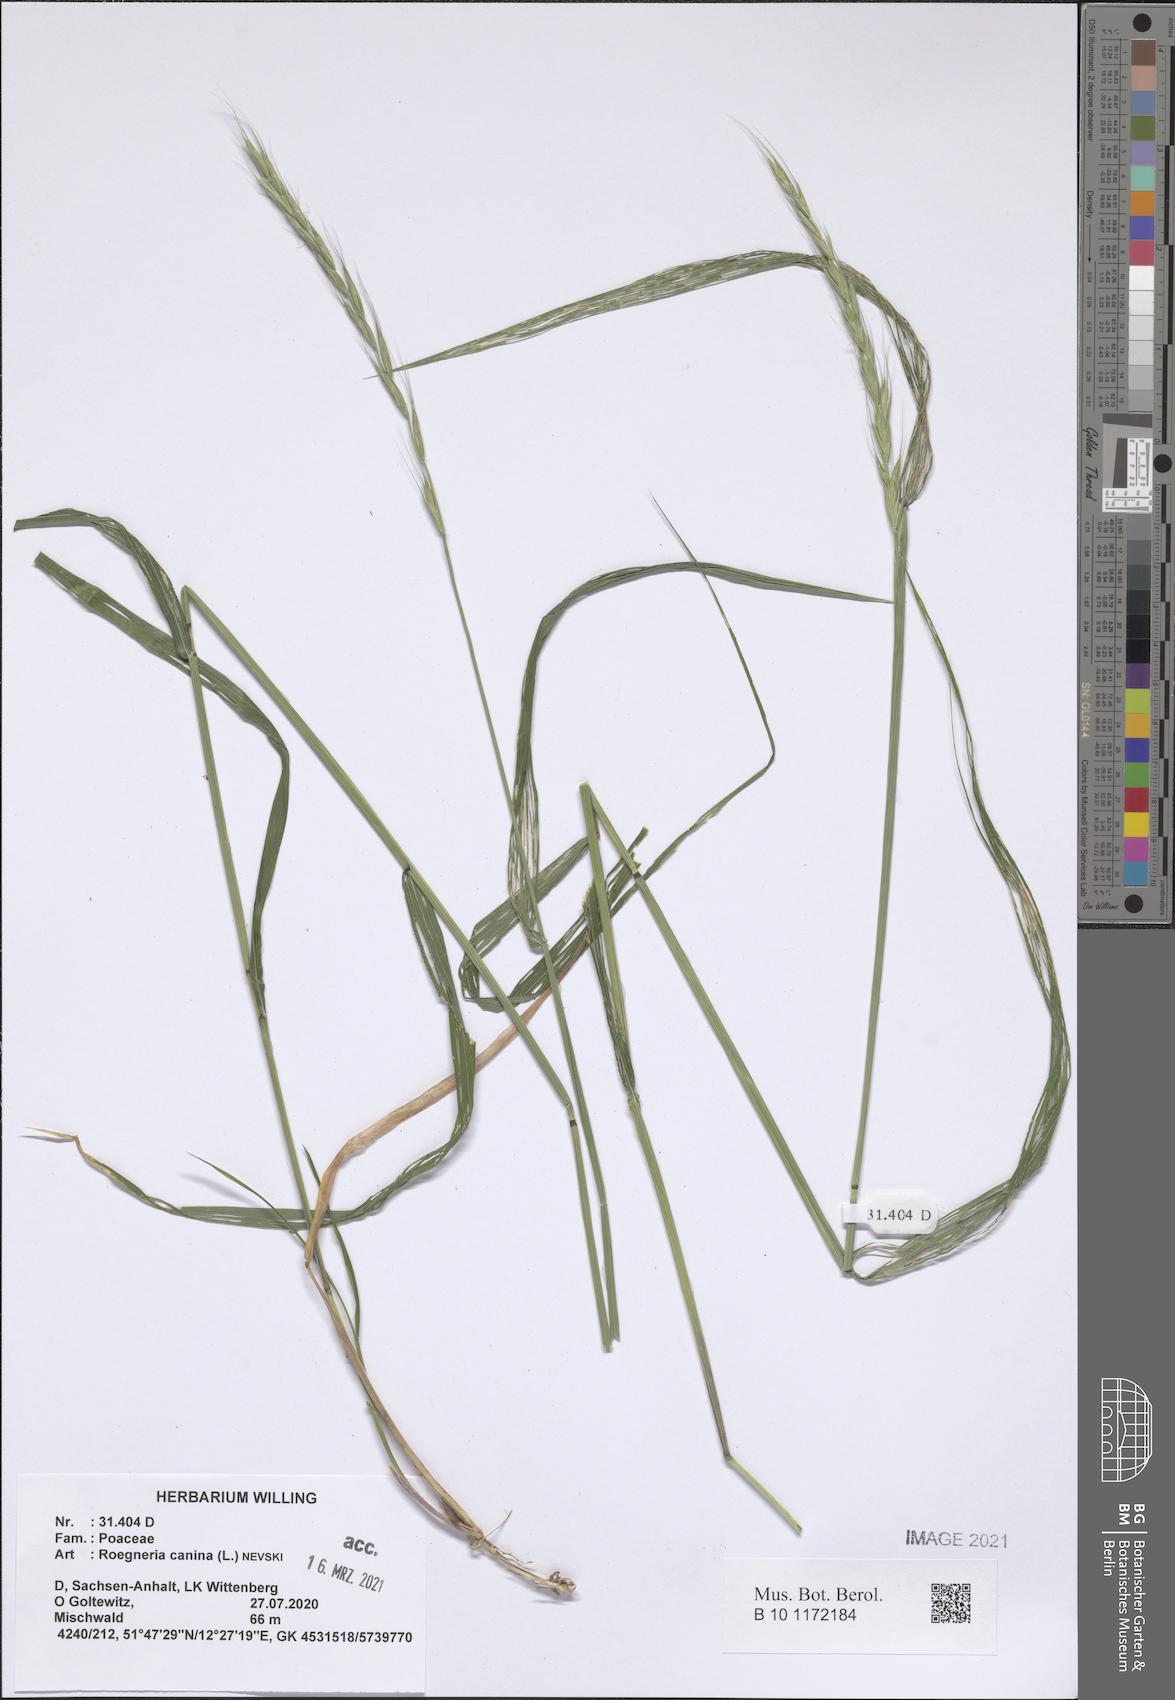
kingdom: Plantae
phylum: Tracheophyta
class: Liliopsida
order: Poales
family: Poaceae
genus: Elymus
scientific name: Elymus caninus
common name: Bearded couch
